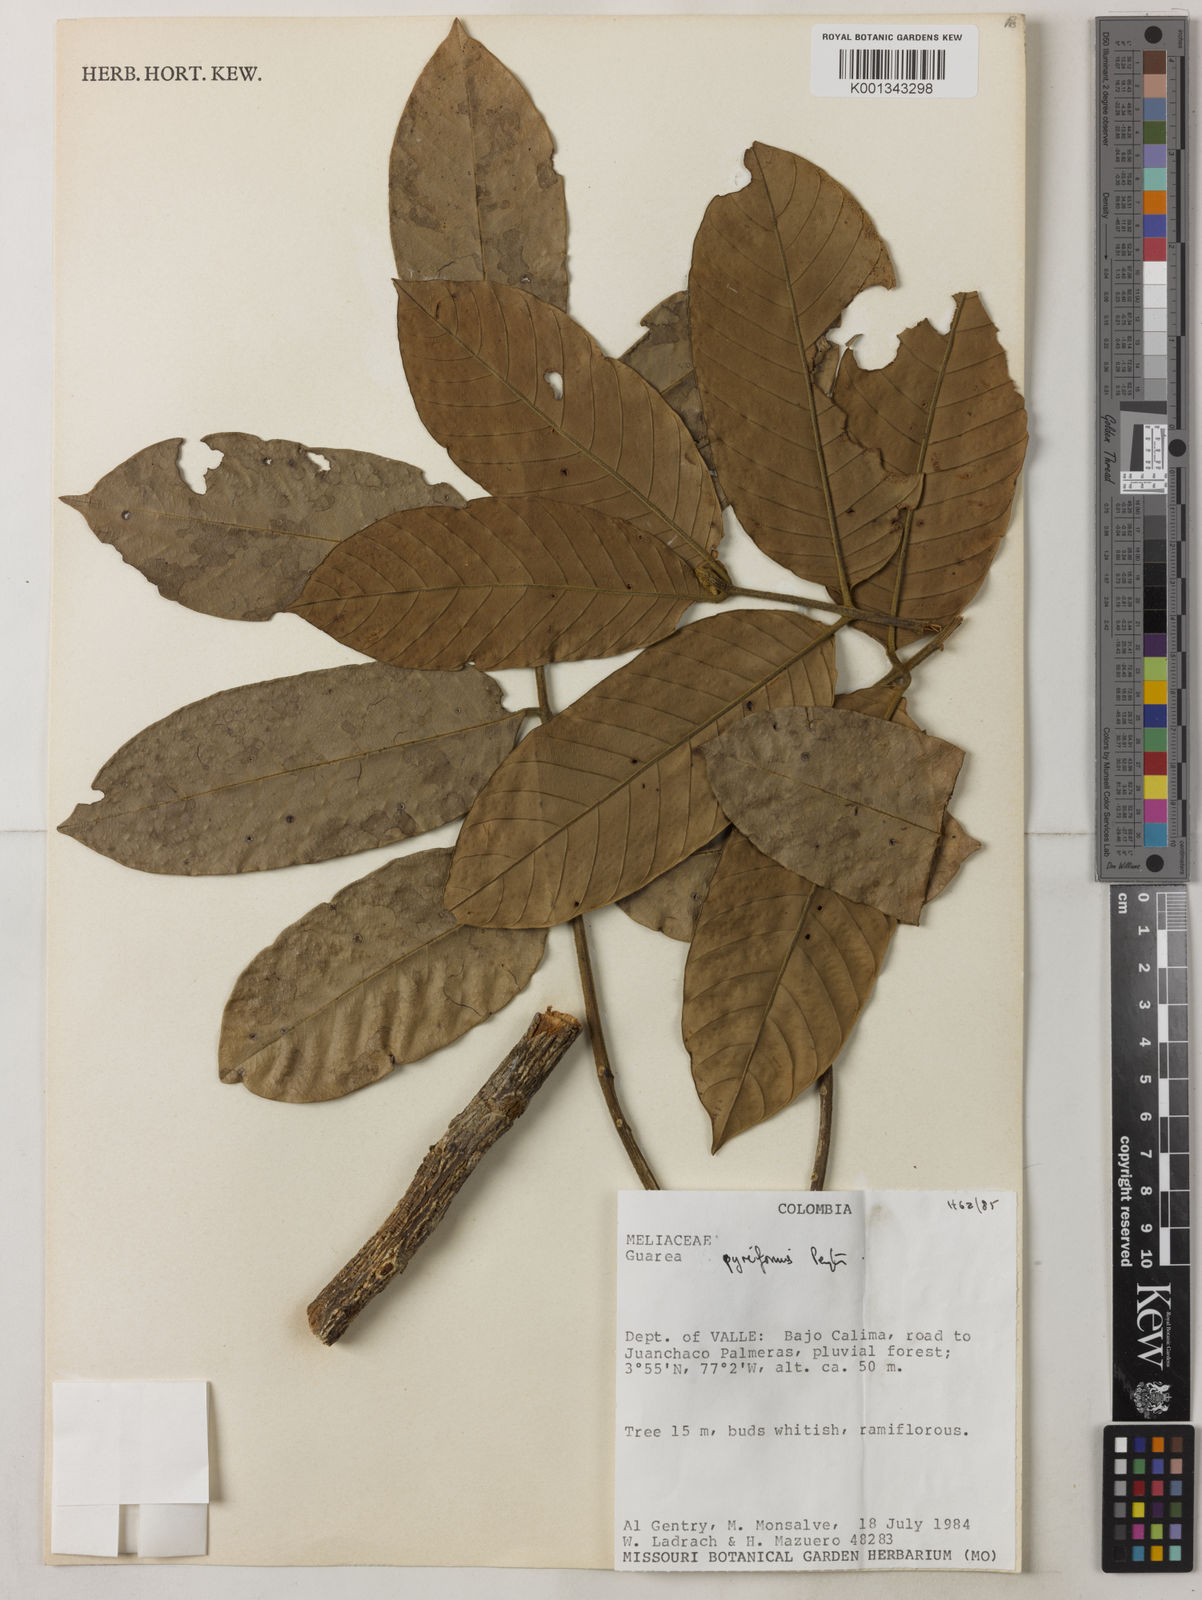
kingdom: Plantae
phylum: Tracheophyta
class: Magnoliopsida
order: Sapindales
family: Meliaceae
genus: Guarea
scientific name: Guarea pyriformis
